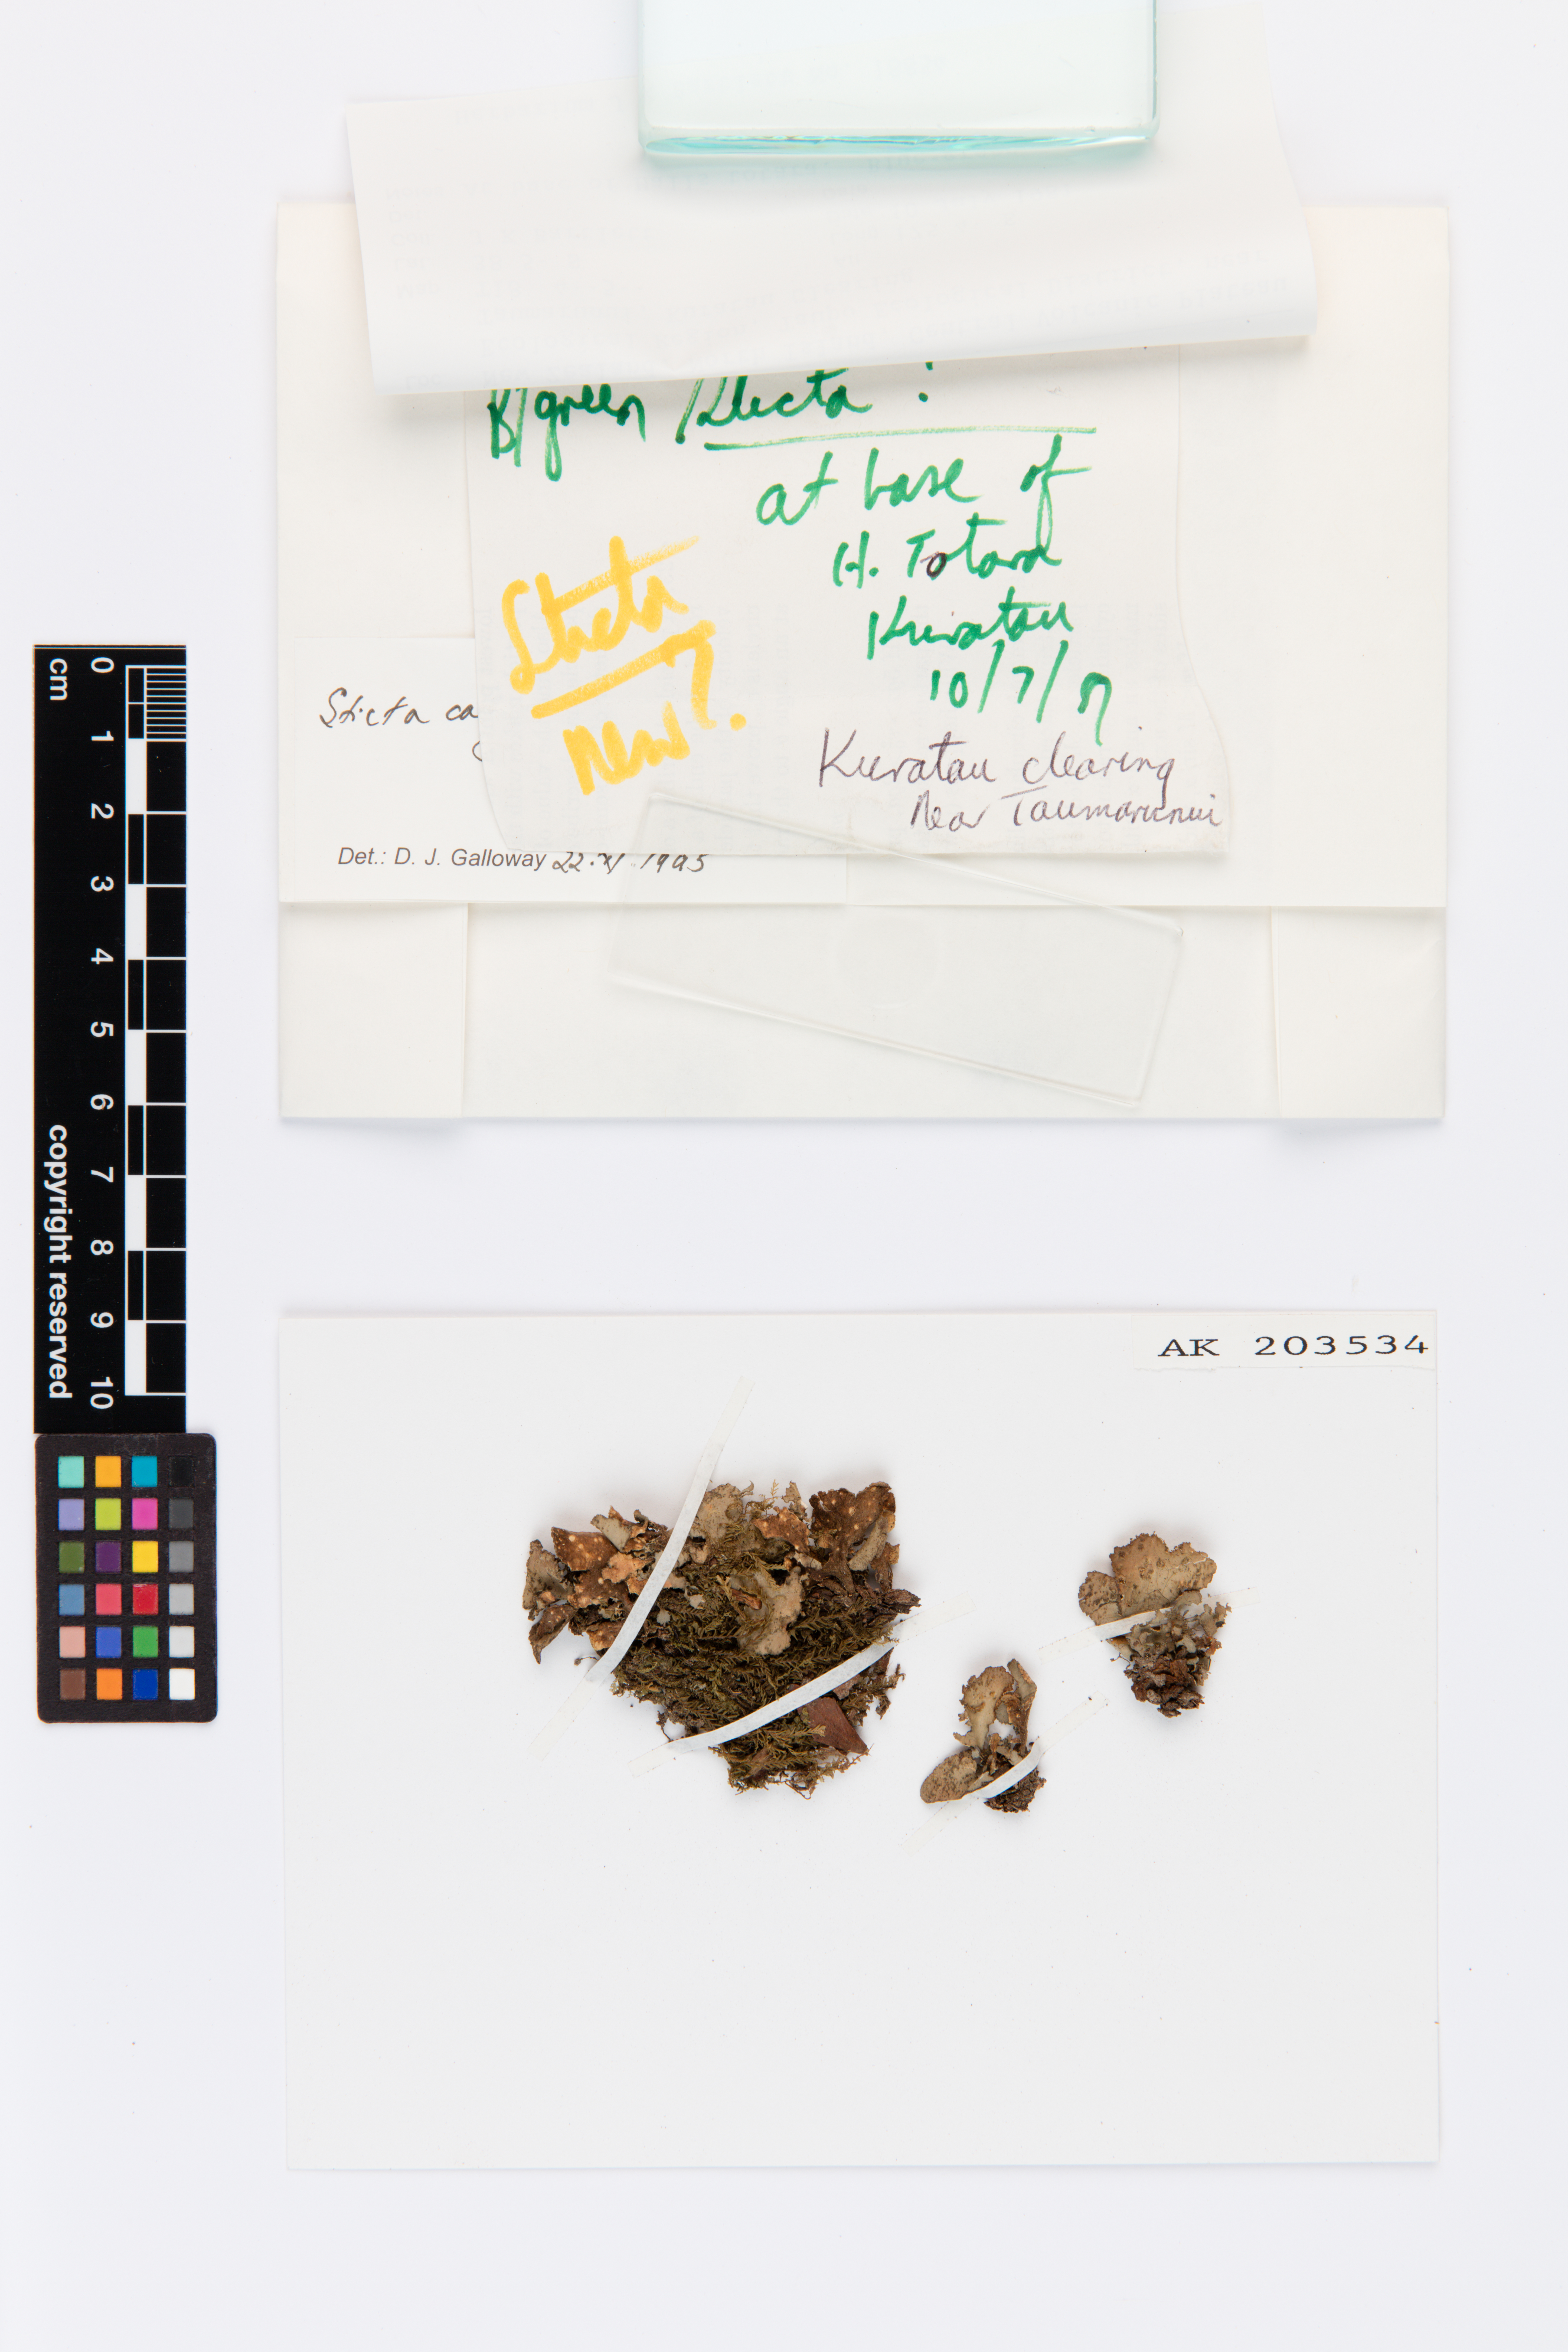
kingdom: Fungi
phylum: Ascomycota
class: Lecanoromycetes
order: Peltigerales
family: Lobariaceae
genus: Sticta
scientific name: Sticta caliginosa
